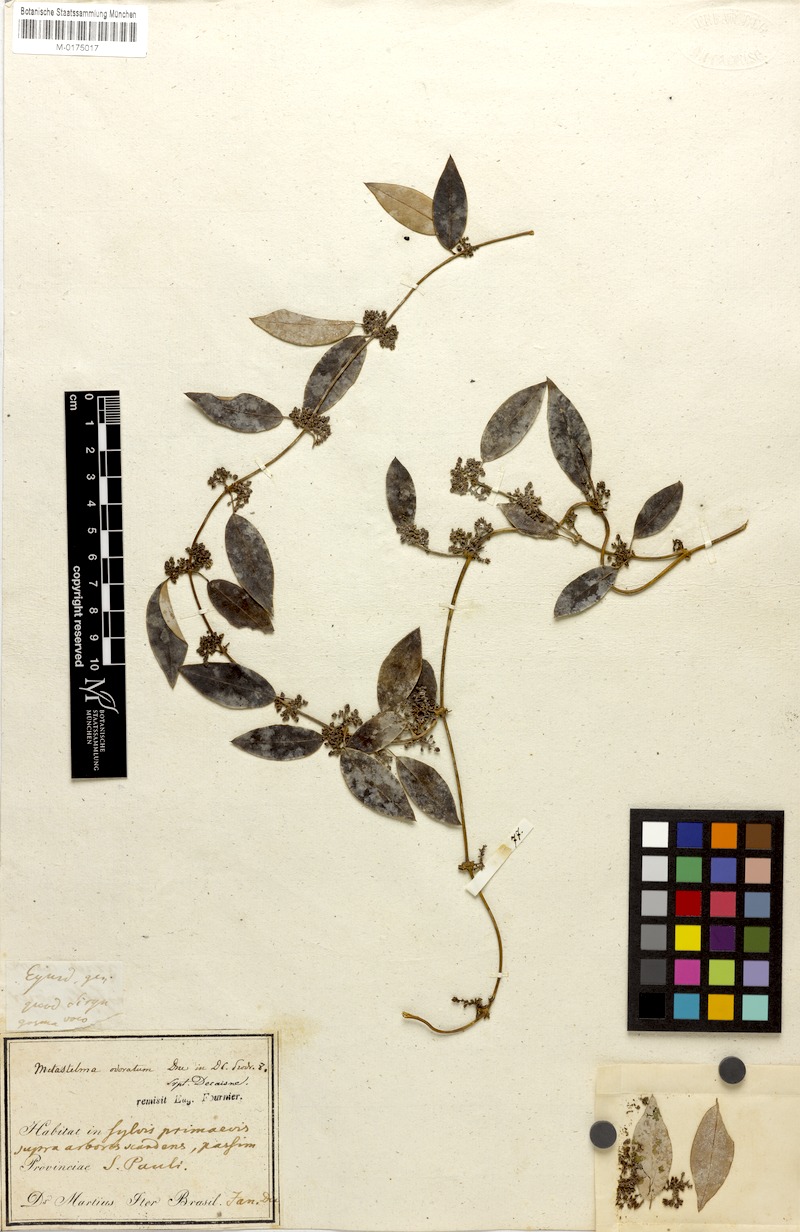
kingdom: Plantae
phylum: Tracheophyta
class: Magnoliopsida
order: Gentianales
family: Apocynaceae
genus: Peplonia
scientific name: Peplonia axillaris
